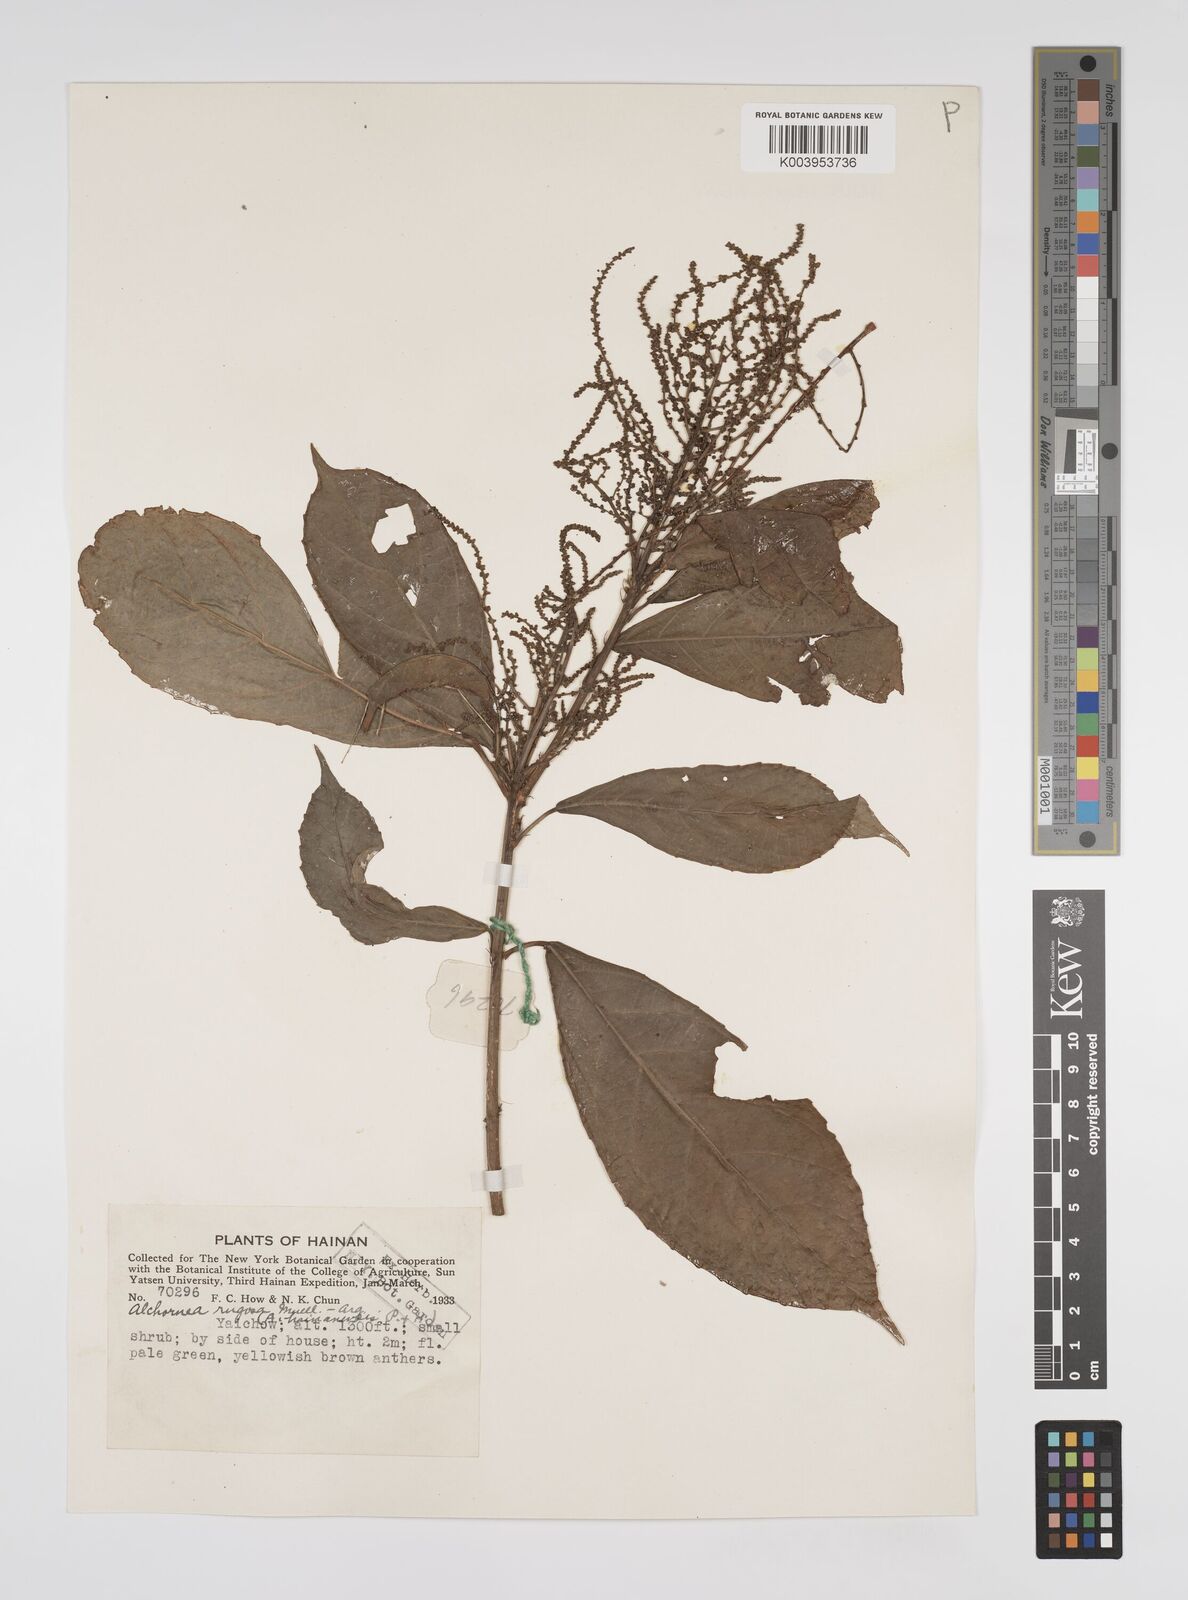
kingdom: Plantae
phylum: Tracheophyta
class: Magnoliopsida
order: Malpighiales
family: Euphorbiaceae
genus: Alchornea
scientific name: Alchornea rugosa
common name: Alchorntree
